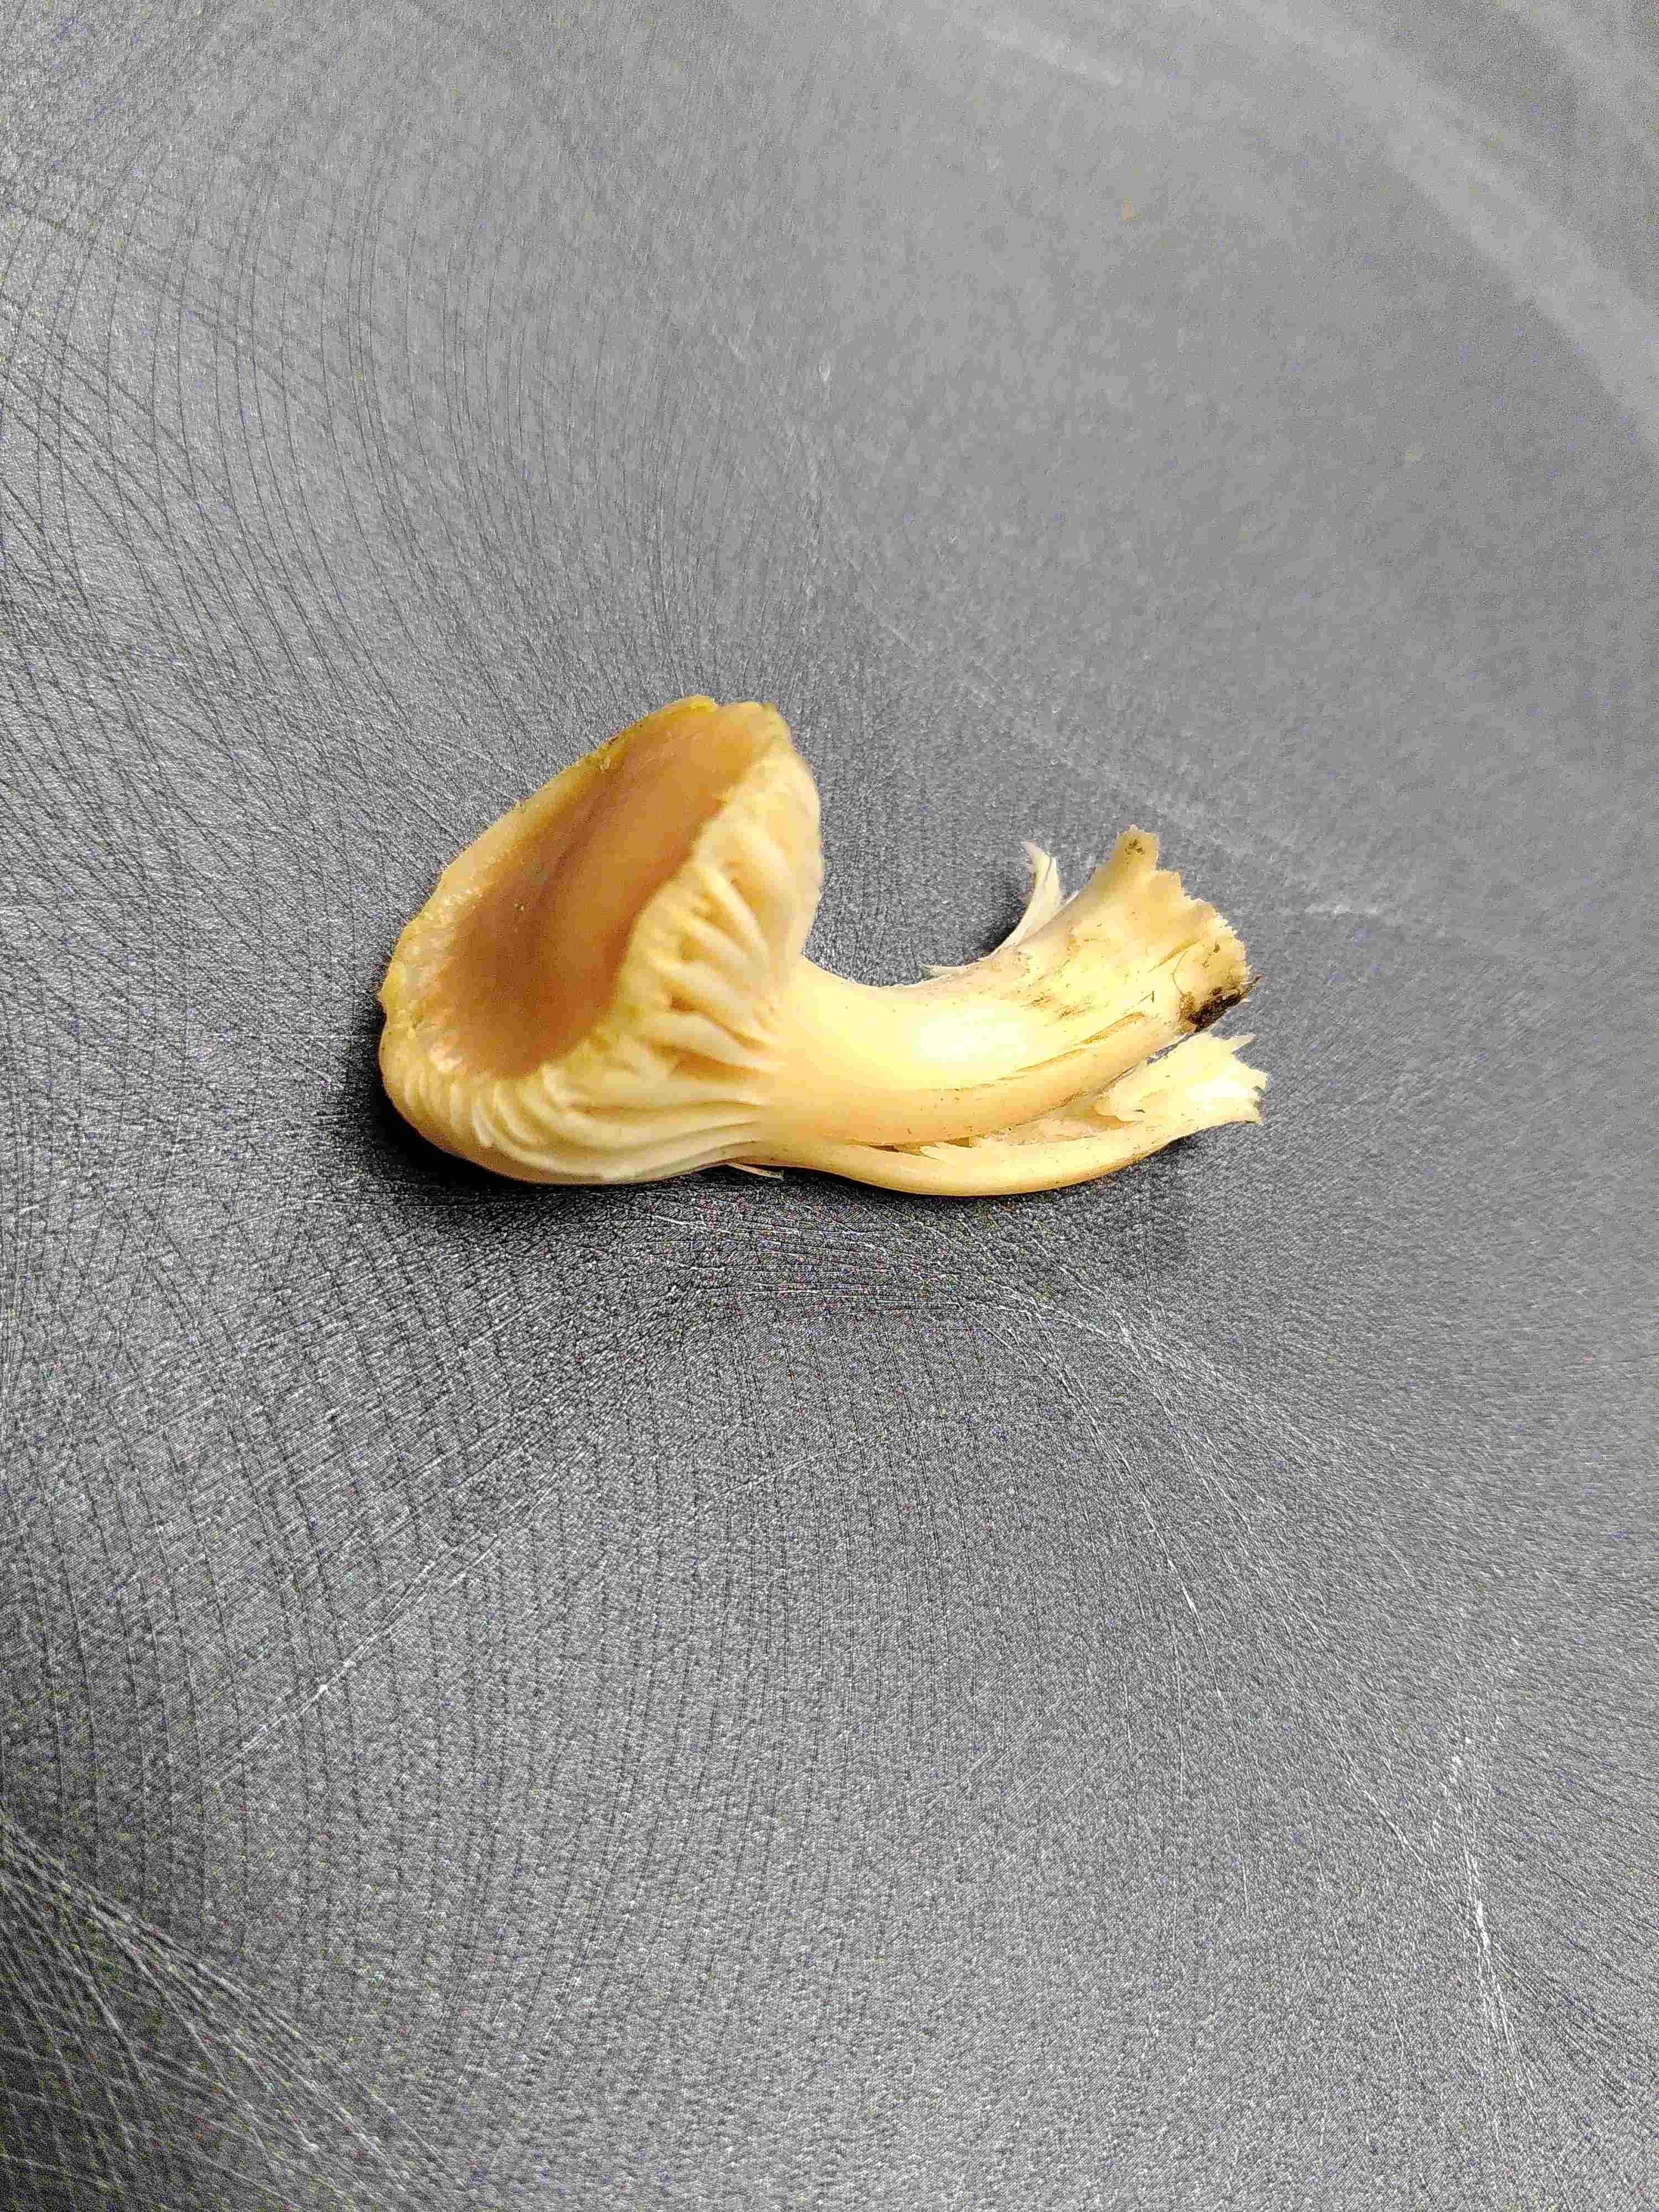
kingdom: Fungi
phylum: Basidiomycota
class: Agaricomycetes
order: Agaricales
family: Hygrophoraceae
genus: Cuphophyllus
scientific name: Cuphophyllus pratensis
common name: eng-vokshat
